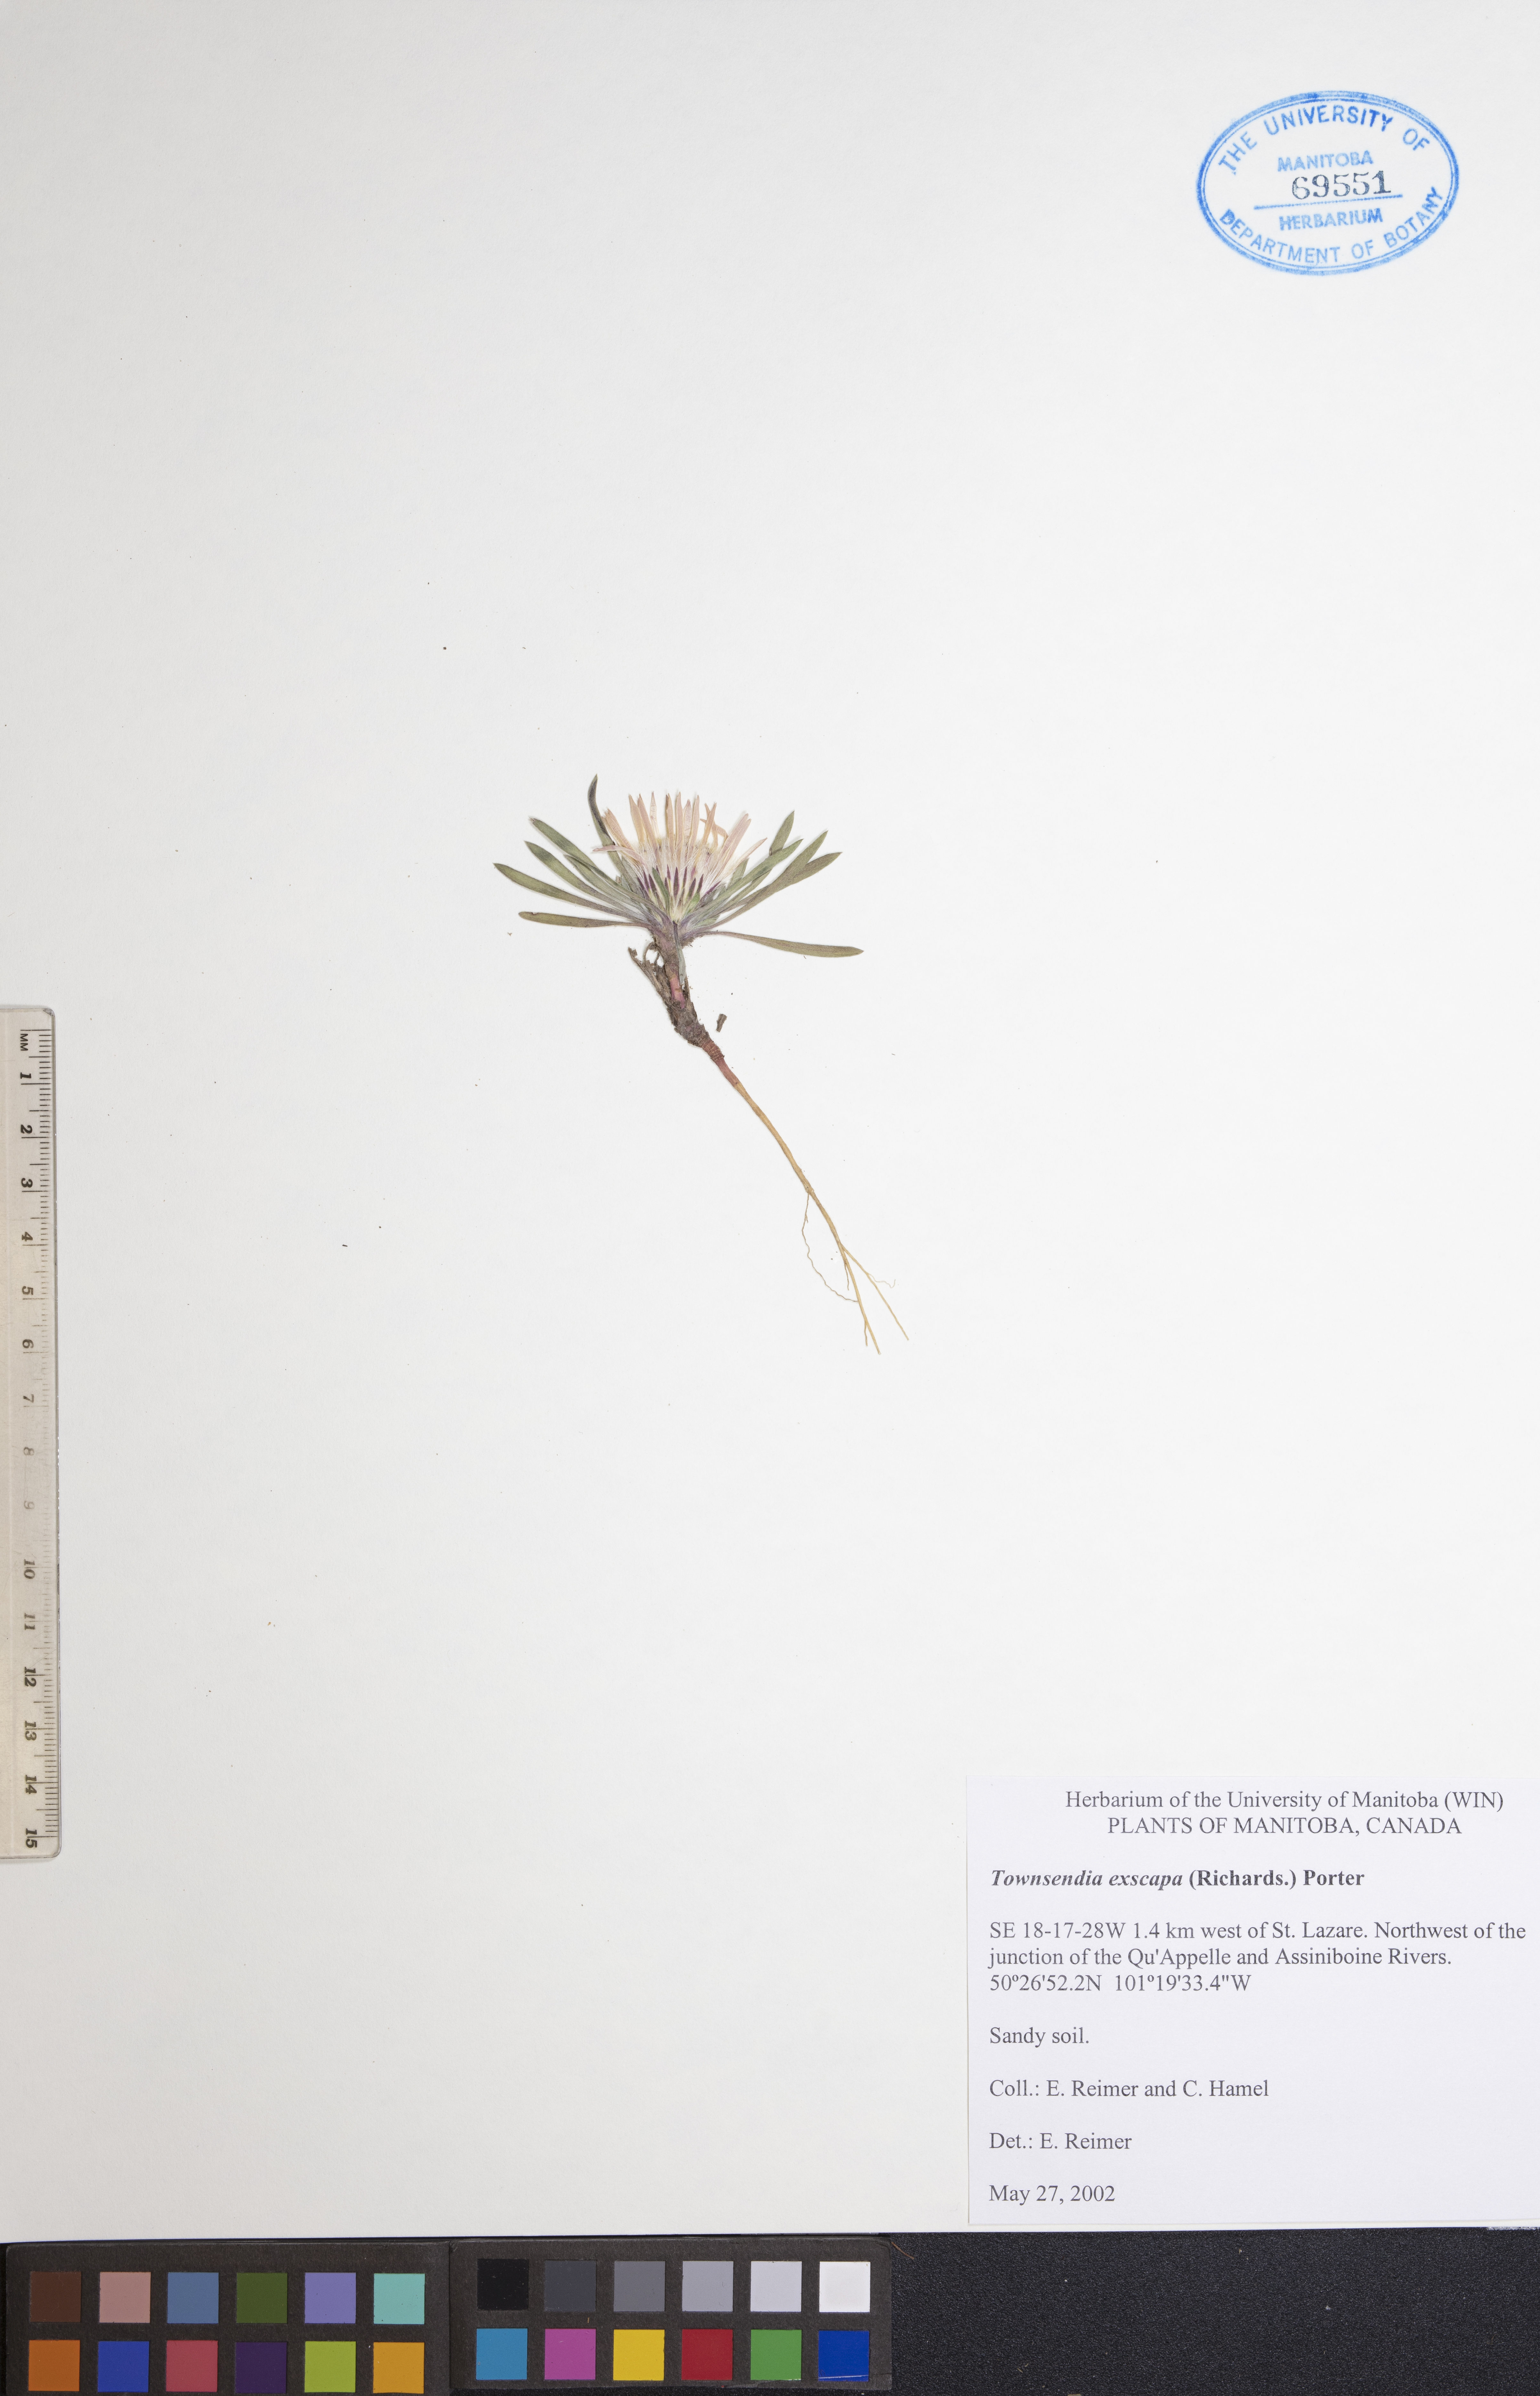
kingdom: Plantae
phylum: Tracheophyta
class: Magnoliopsida
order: Asterales
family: Asteraceae
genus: Townsendia
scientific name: Townsendia exscapa
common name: Dwarf townsendia
